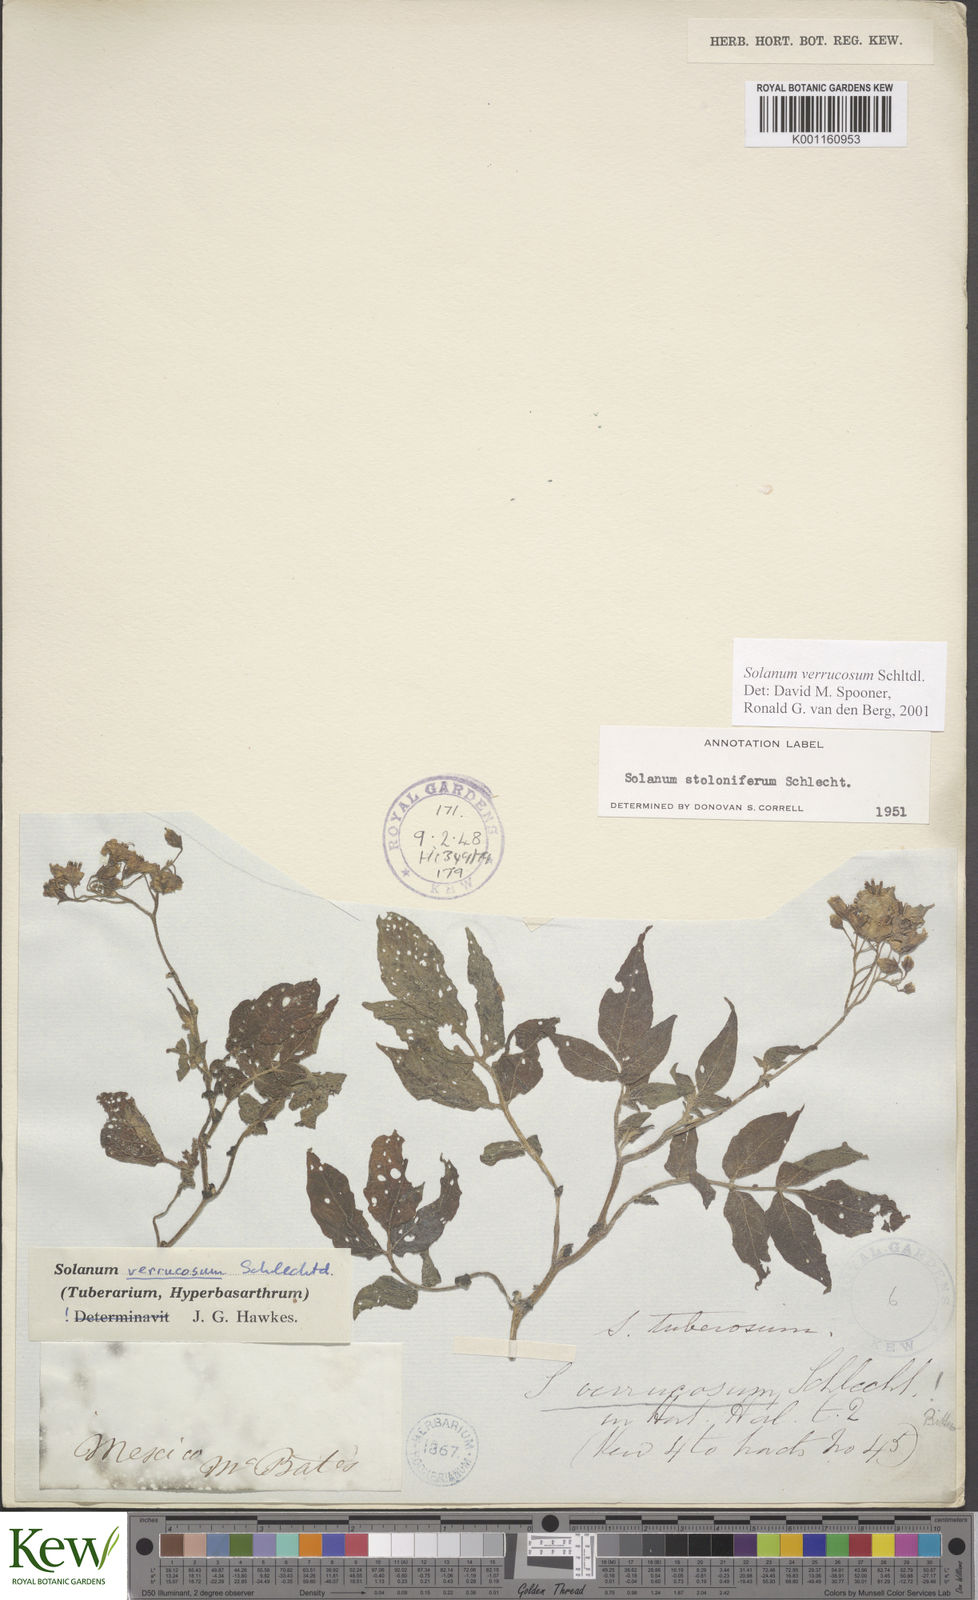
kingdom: Plantae
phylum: Tracheophyta
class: Magnoliopsida
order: Solanales
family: Solanaceae
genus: Solanum
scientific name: Solanum verrucosum
